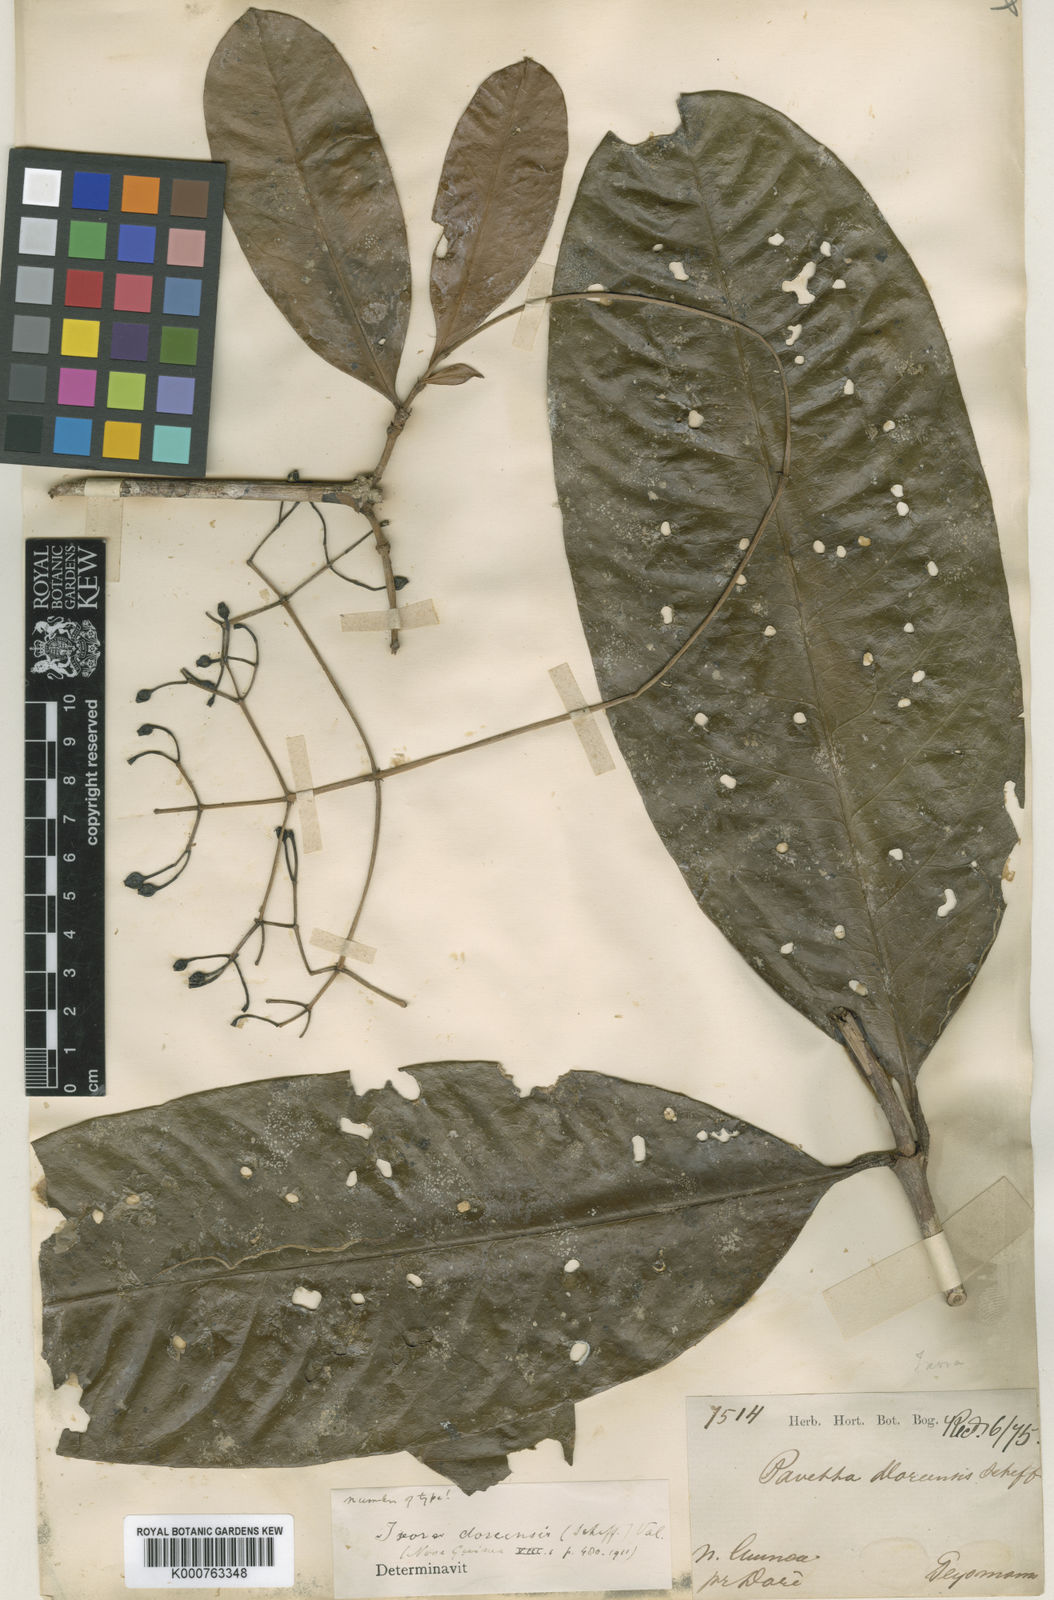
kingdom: Plantae
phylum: Tracheophyta
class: Magnoliopsida
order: Gentianales
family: Rubiaceae
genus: Ixora
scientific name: Ixora doreensis
